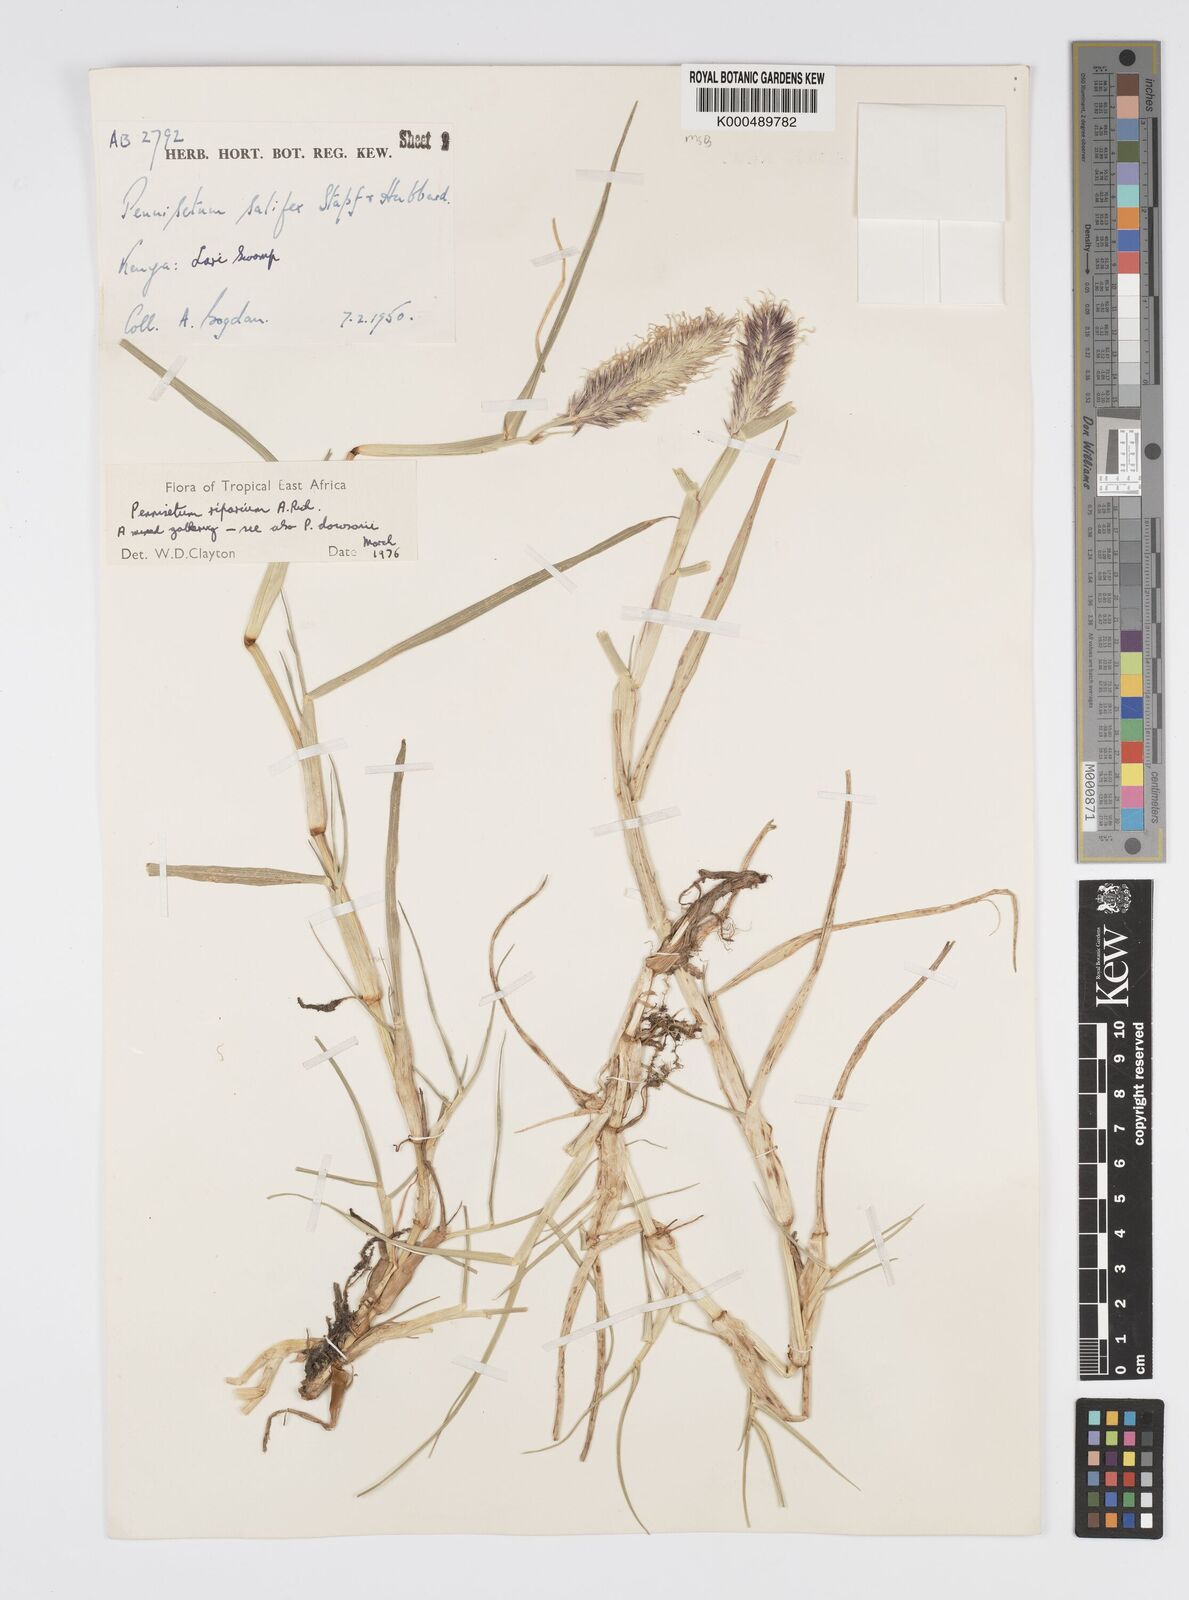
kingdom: Plantae
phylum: Tracheophyta
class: Liliopsida
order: Poales
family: Poaceae
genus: Cenchrus
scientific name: Cenchrus Pennisetum spec
